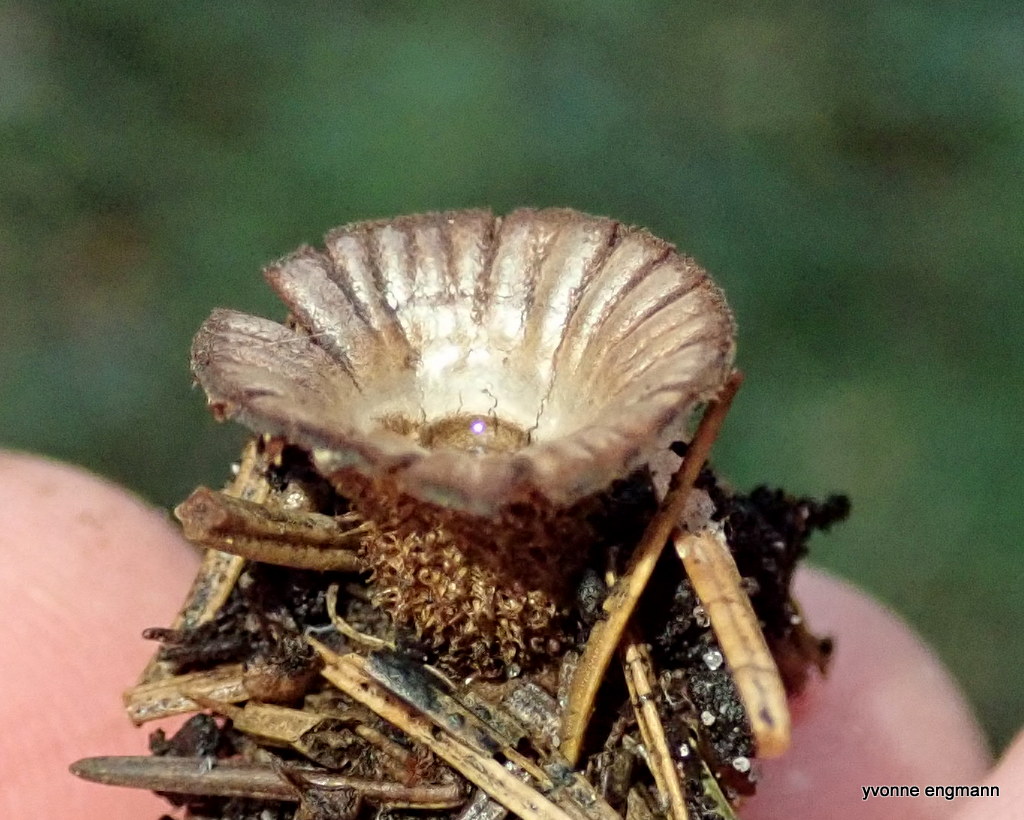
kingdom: Fungi
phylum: Basidiomycota
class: Agaricomycetes
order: Agaricales
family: Agaricaceae
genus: Cyathus
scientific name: Cyathus striatus
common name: stribet redesvamp
